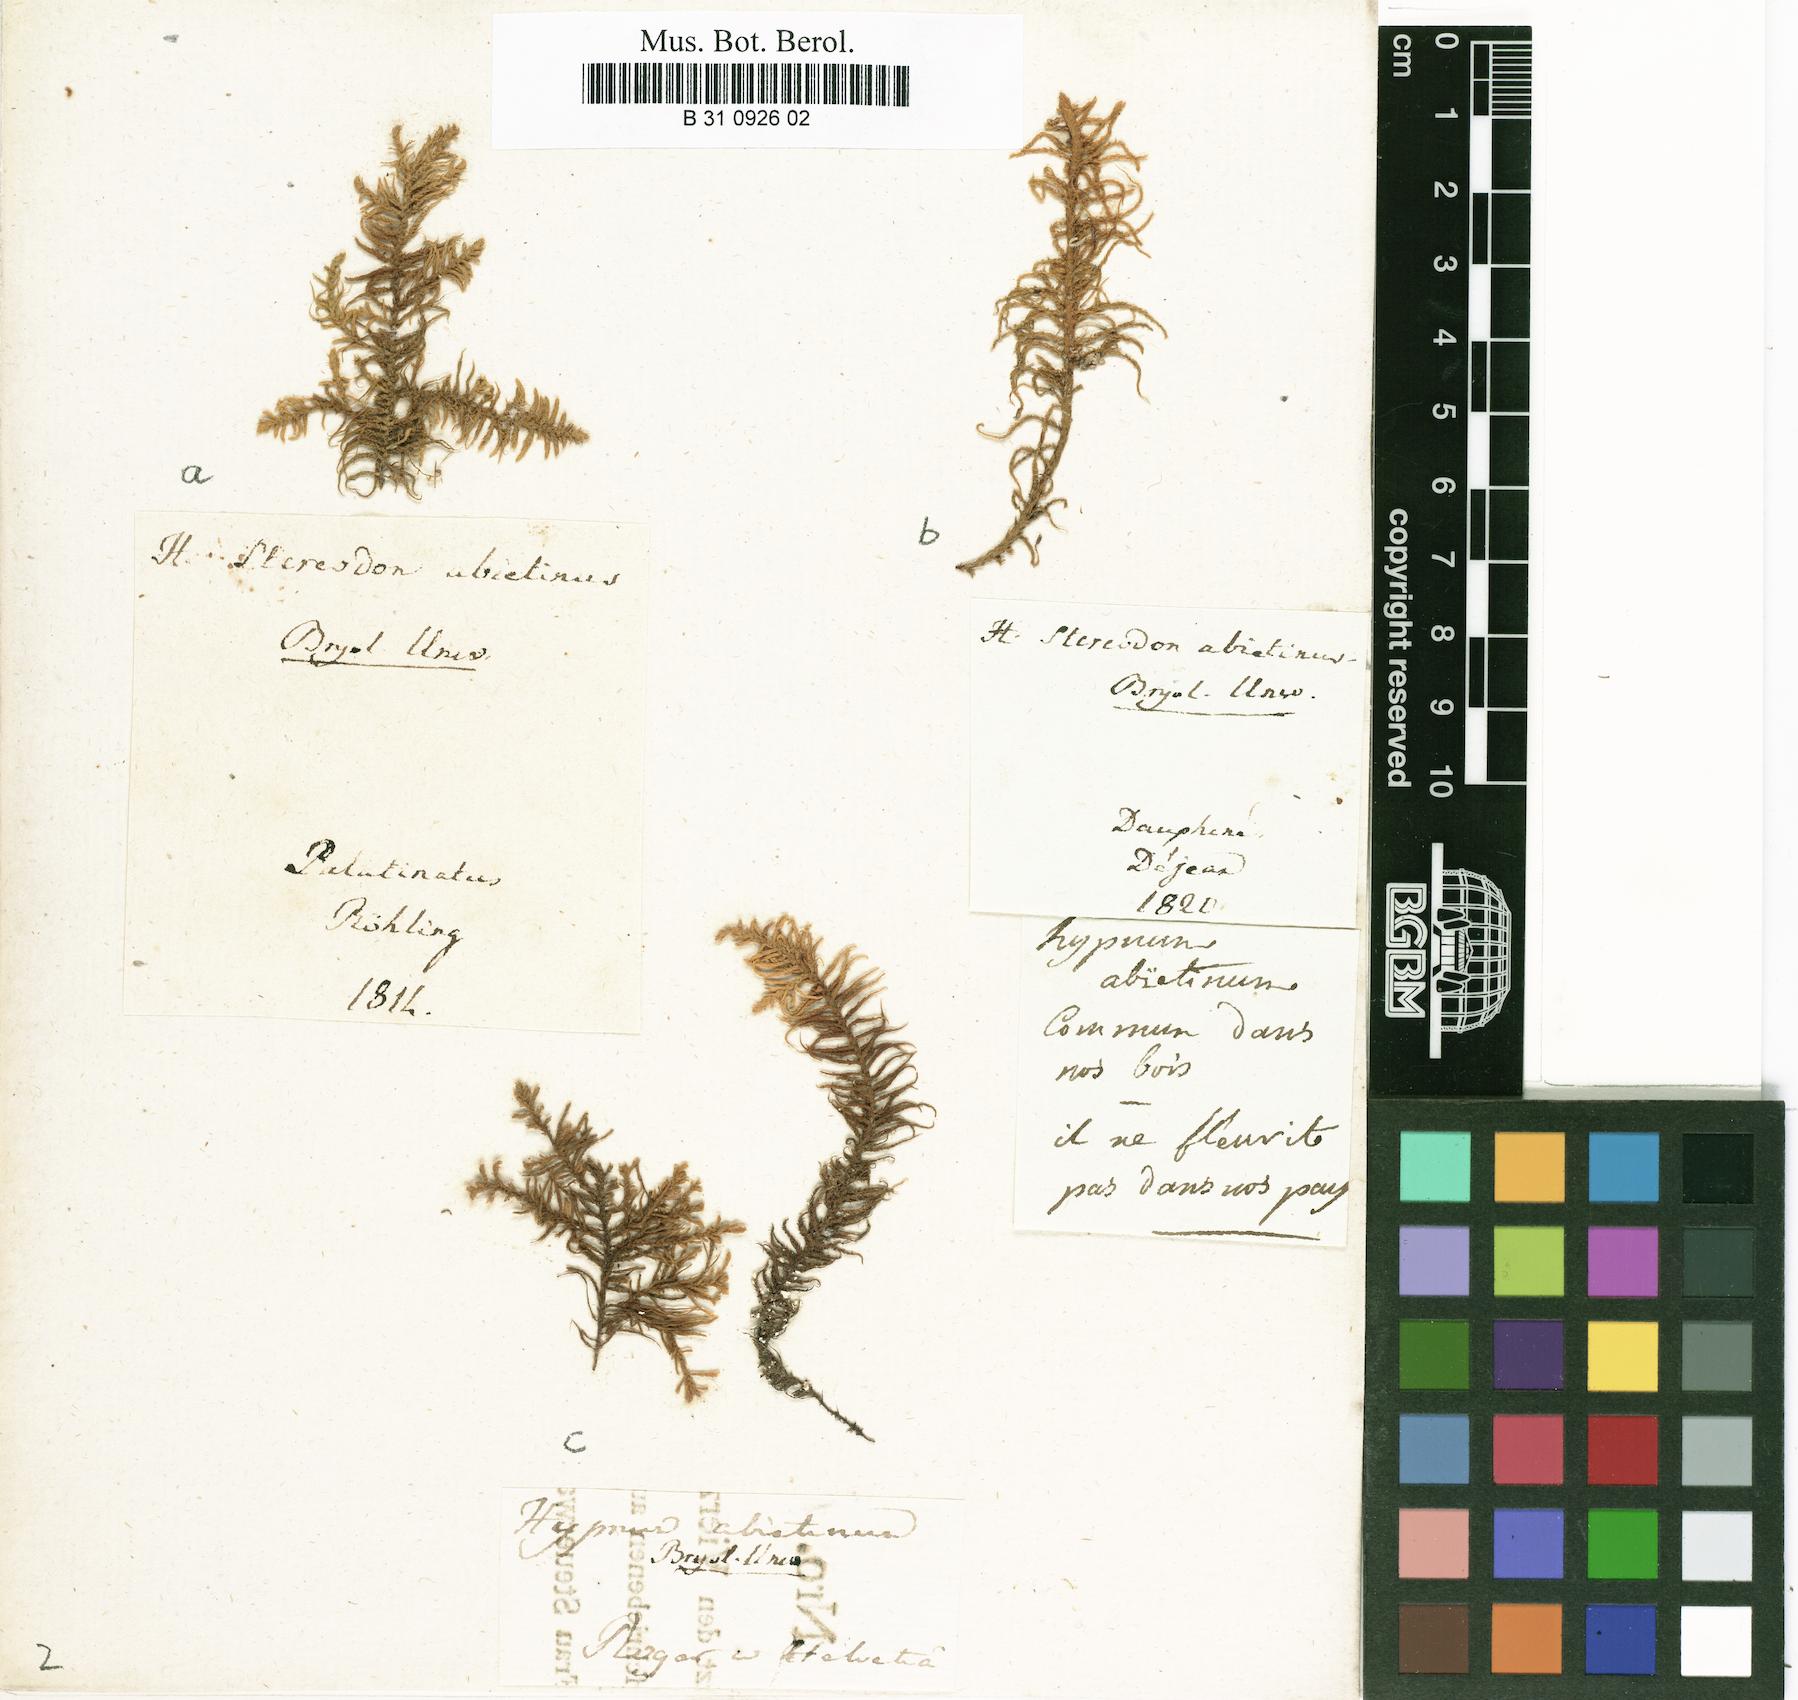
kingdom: Plantae
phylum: Bryophyta
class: Bryopsida
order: Hypnales
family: Thuidiaceae
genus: Abietinella
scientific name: Abietinella abietina
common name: Wiry fern moss
